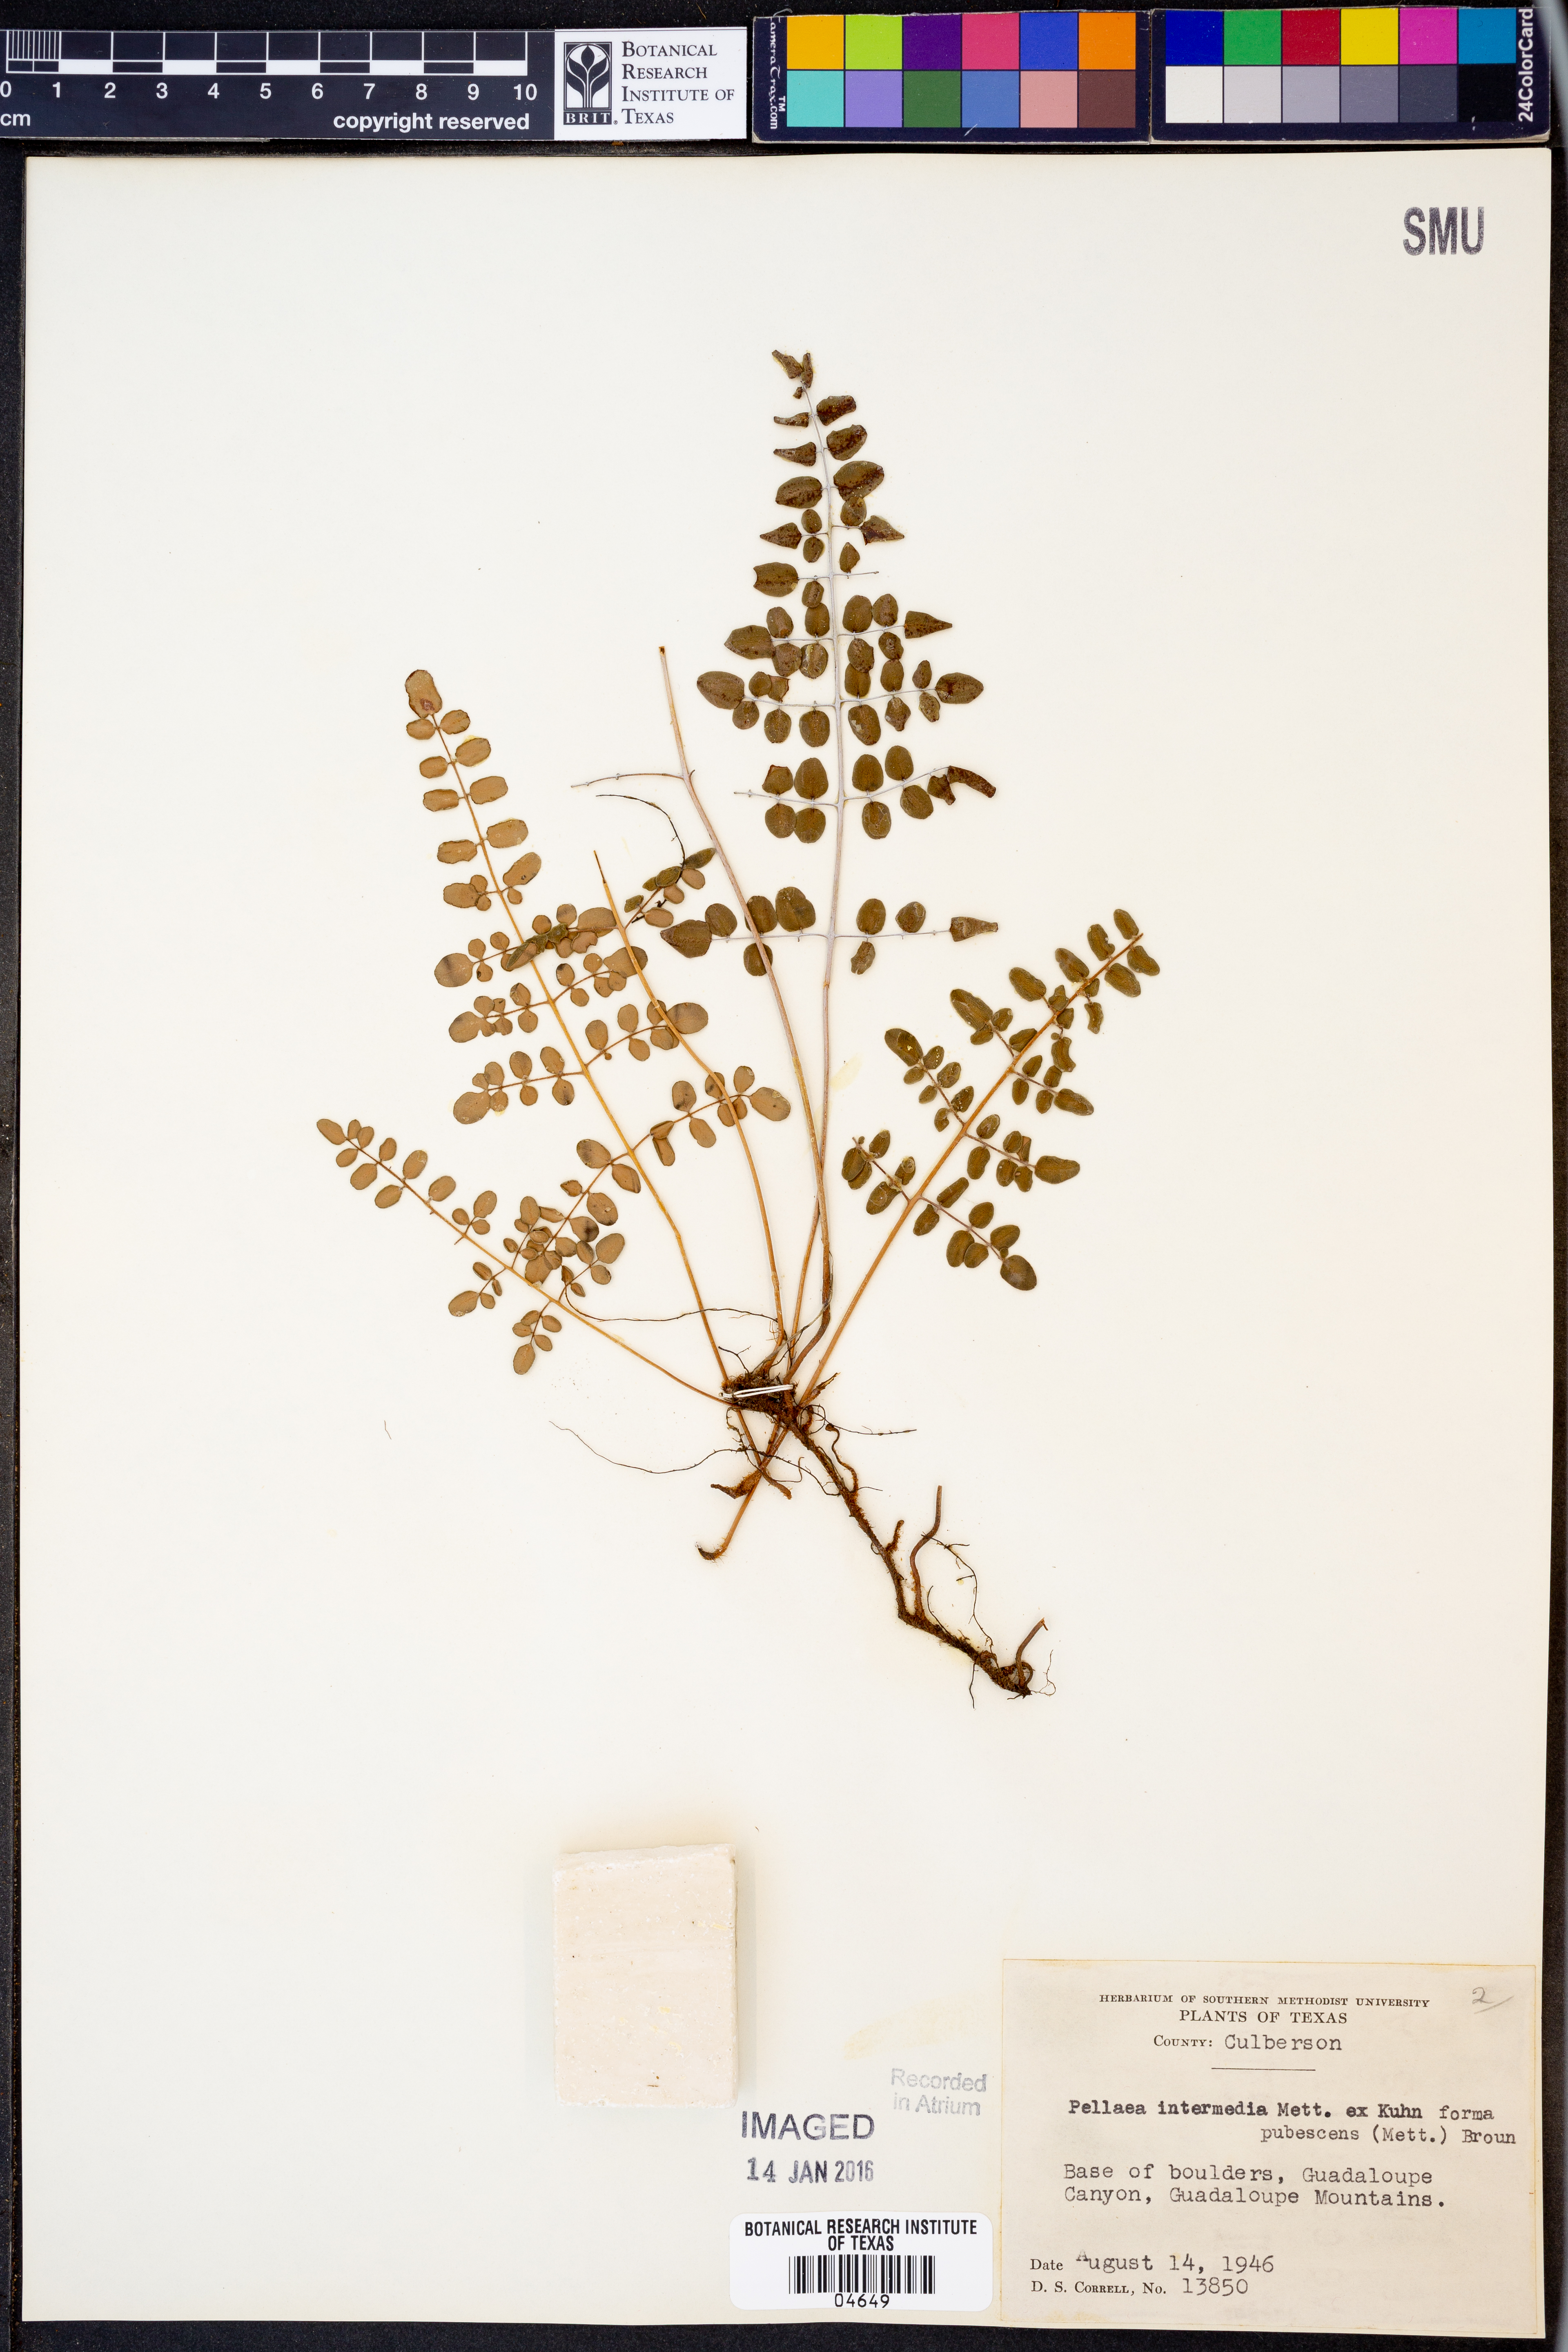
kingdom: Plantae
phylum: Tracheophyta
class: Polypodiopsida
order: Polypodiales
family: Pteridaceae
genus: Pellaea
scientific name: Pellaea intermedia
